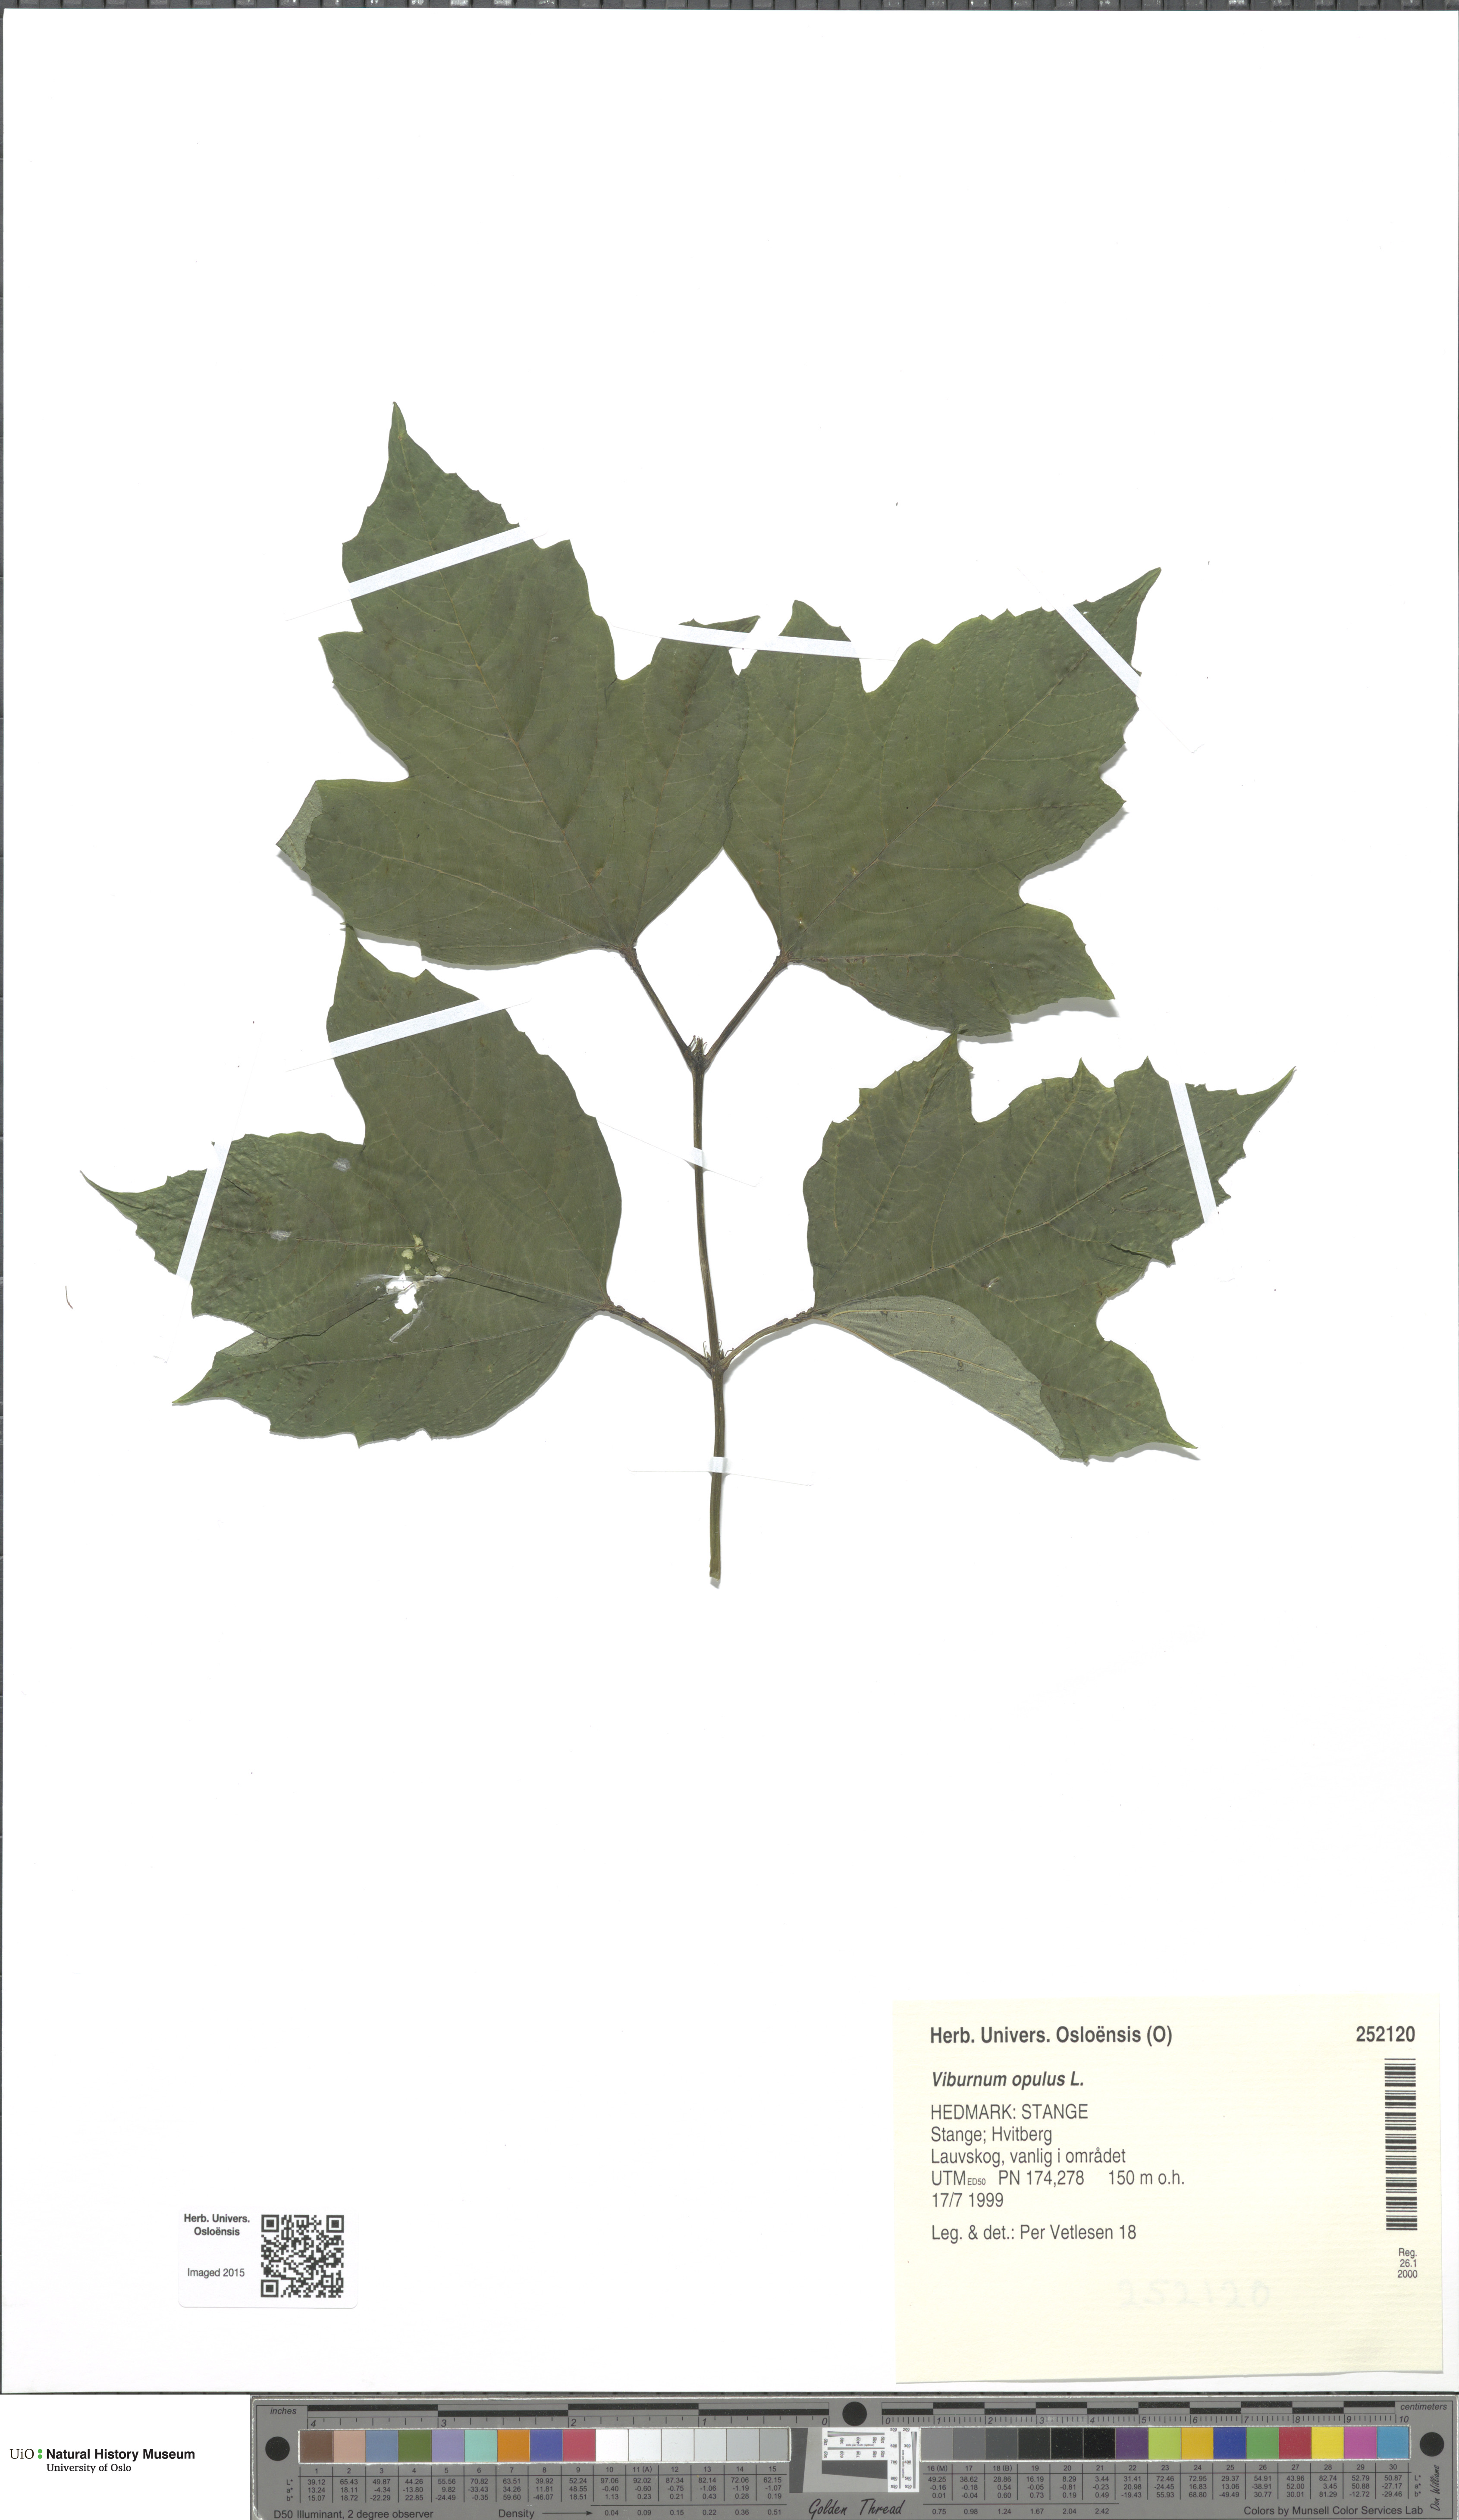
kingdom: Plantae
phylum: Tracheophyta
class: Magnoliopsida
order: Dipsacales
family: Viburnaceae
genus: Viburnum
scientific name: Viburnum opulus
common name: Guelder-rose
